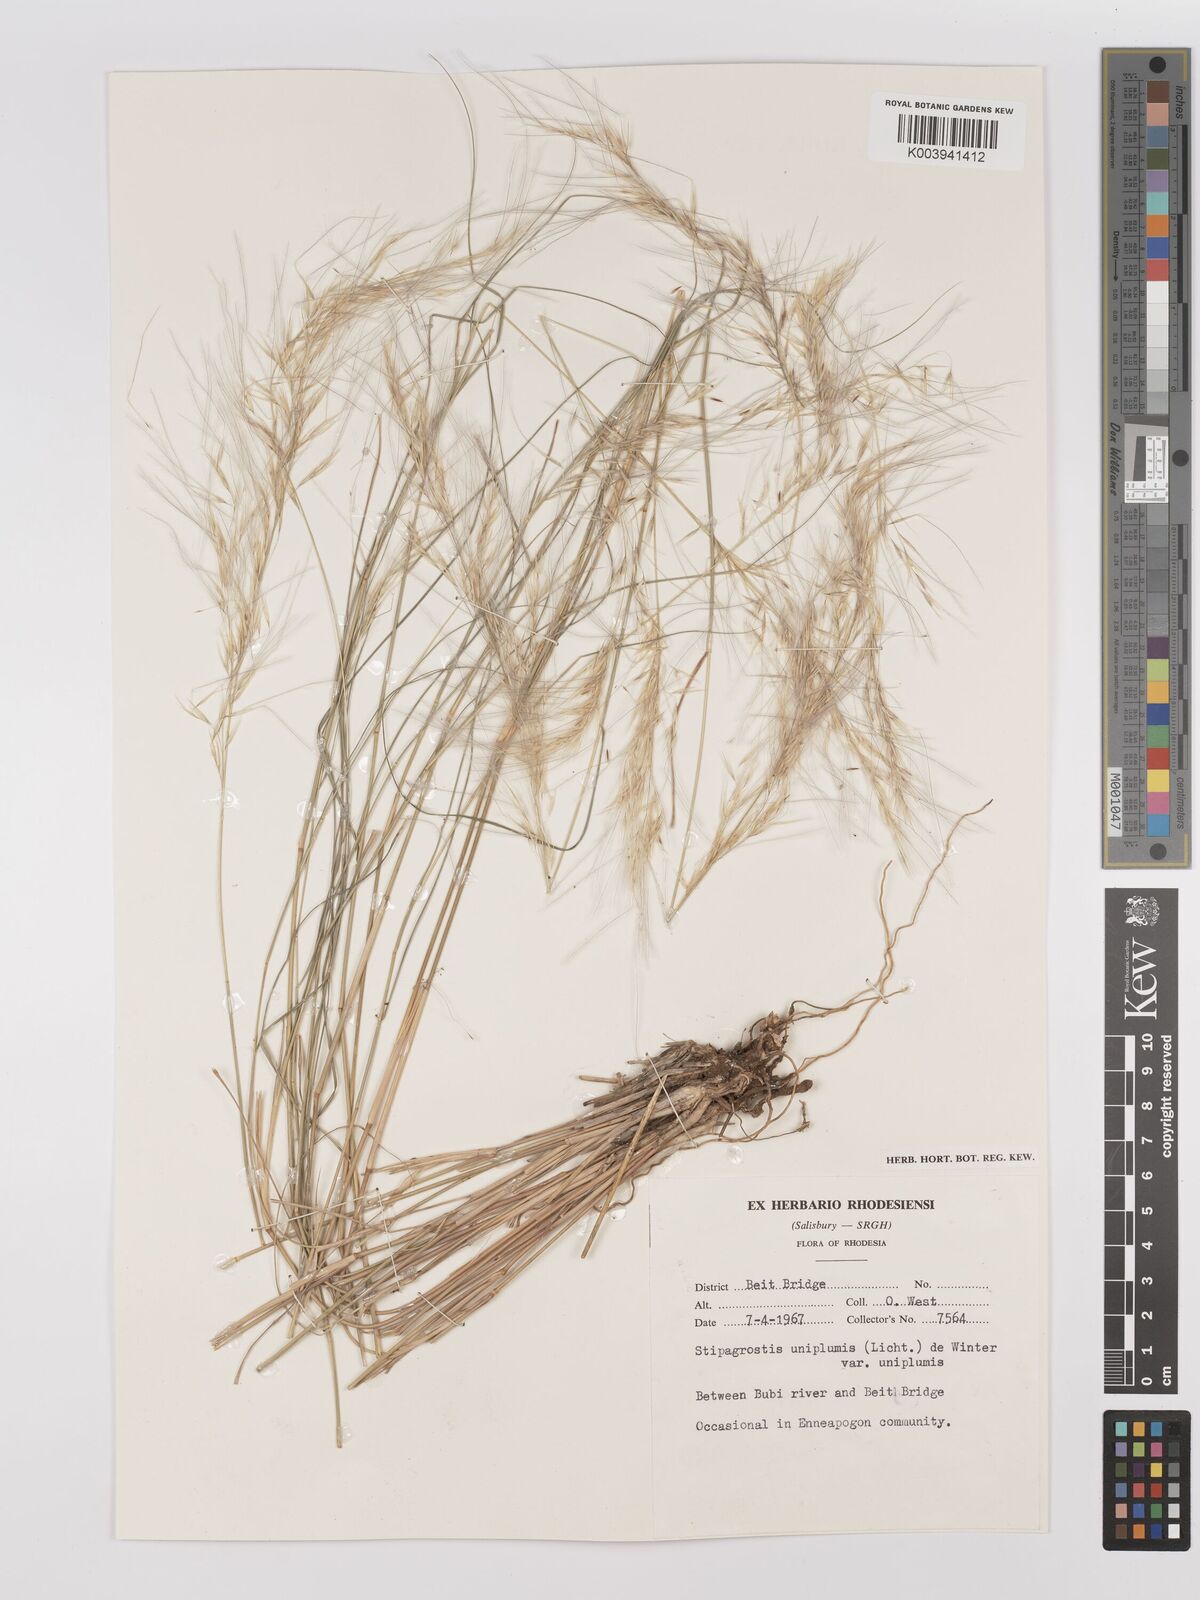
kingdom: Plantae
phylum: Tracheophyta
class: Liliopsida
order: Poales
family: Poaceae
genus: Stipagrostis
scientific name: Stipagrostis uniplumis
